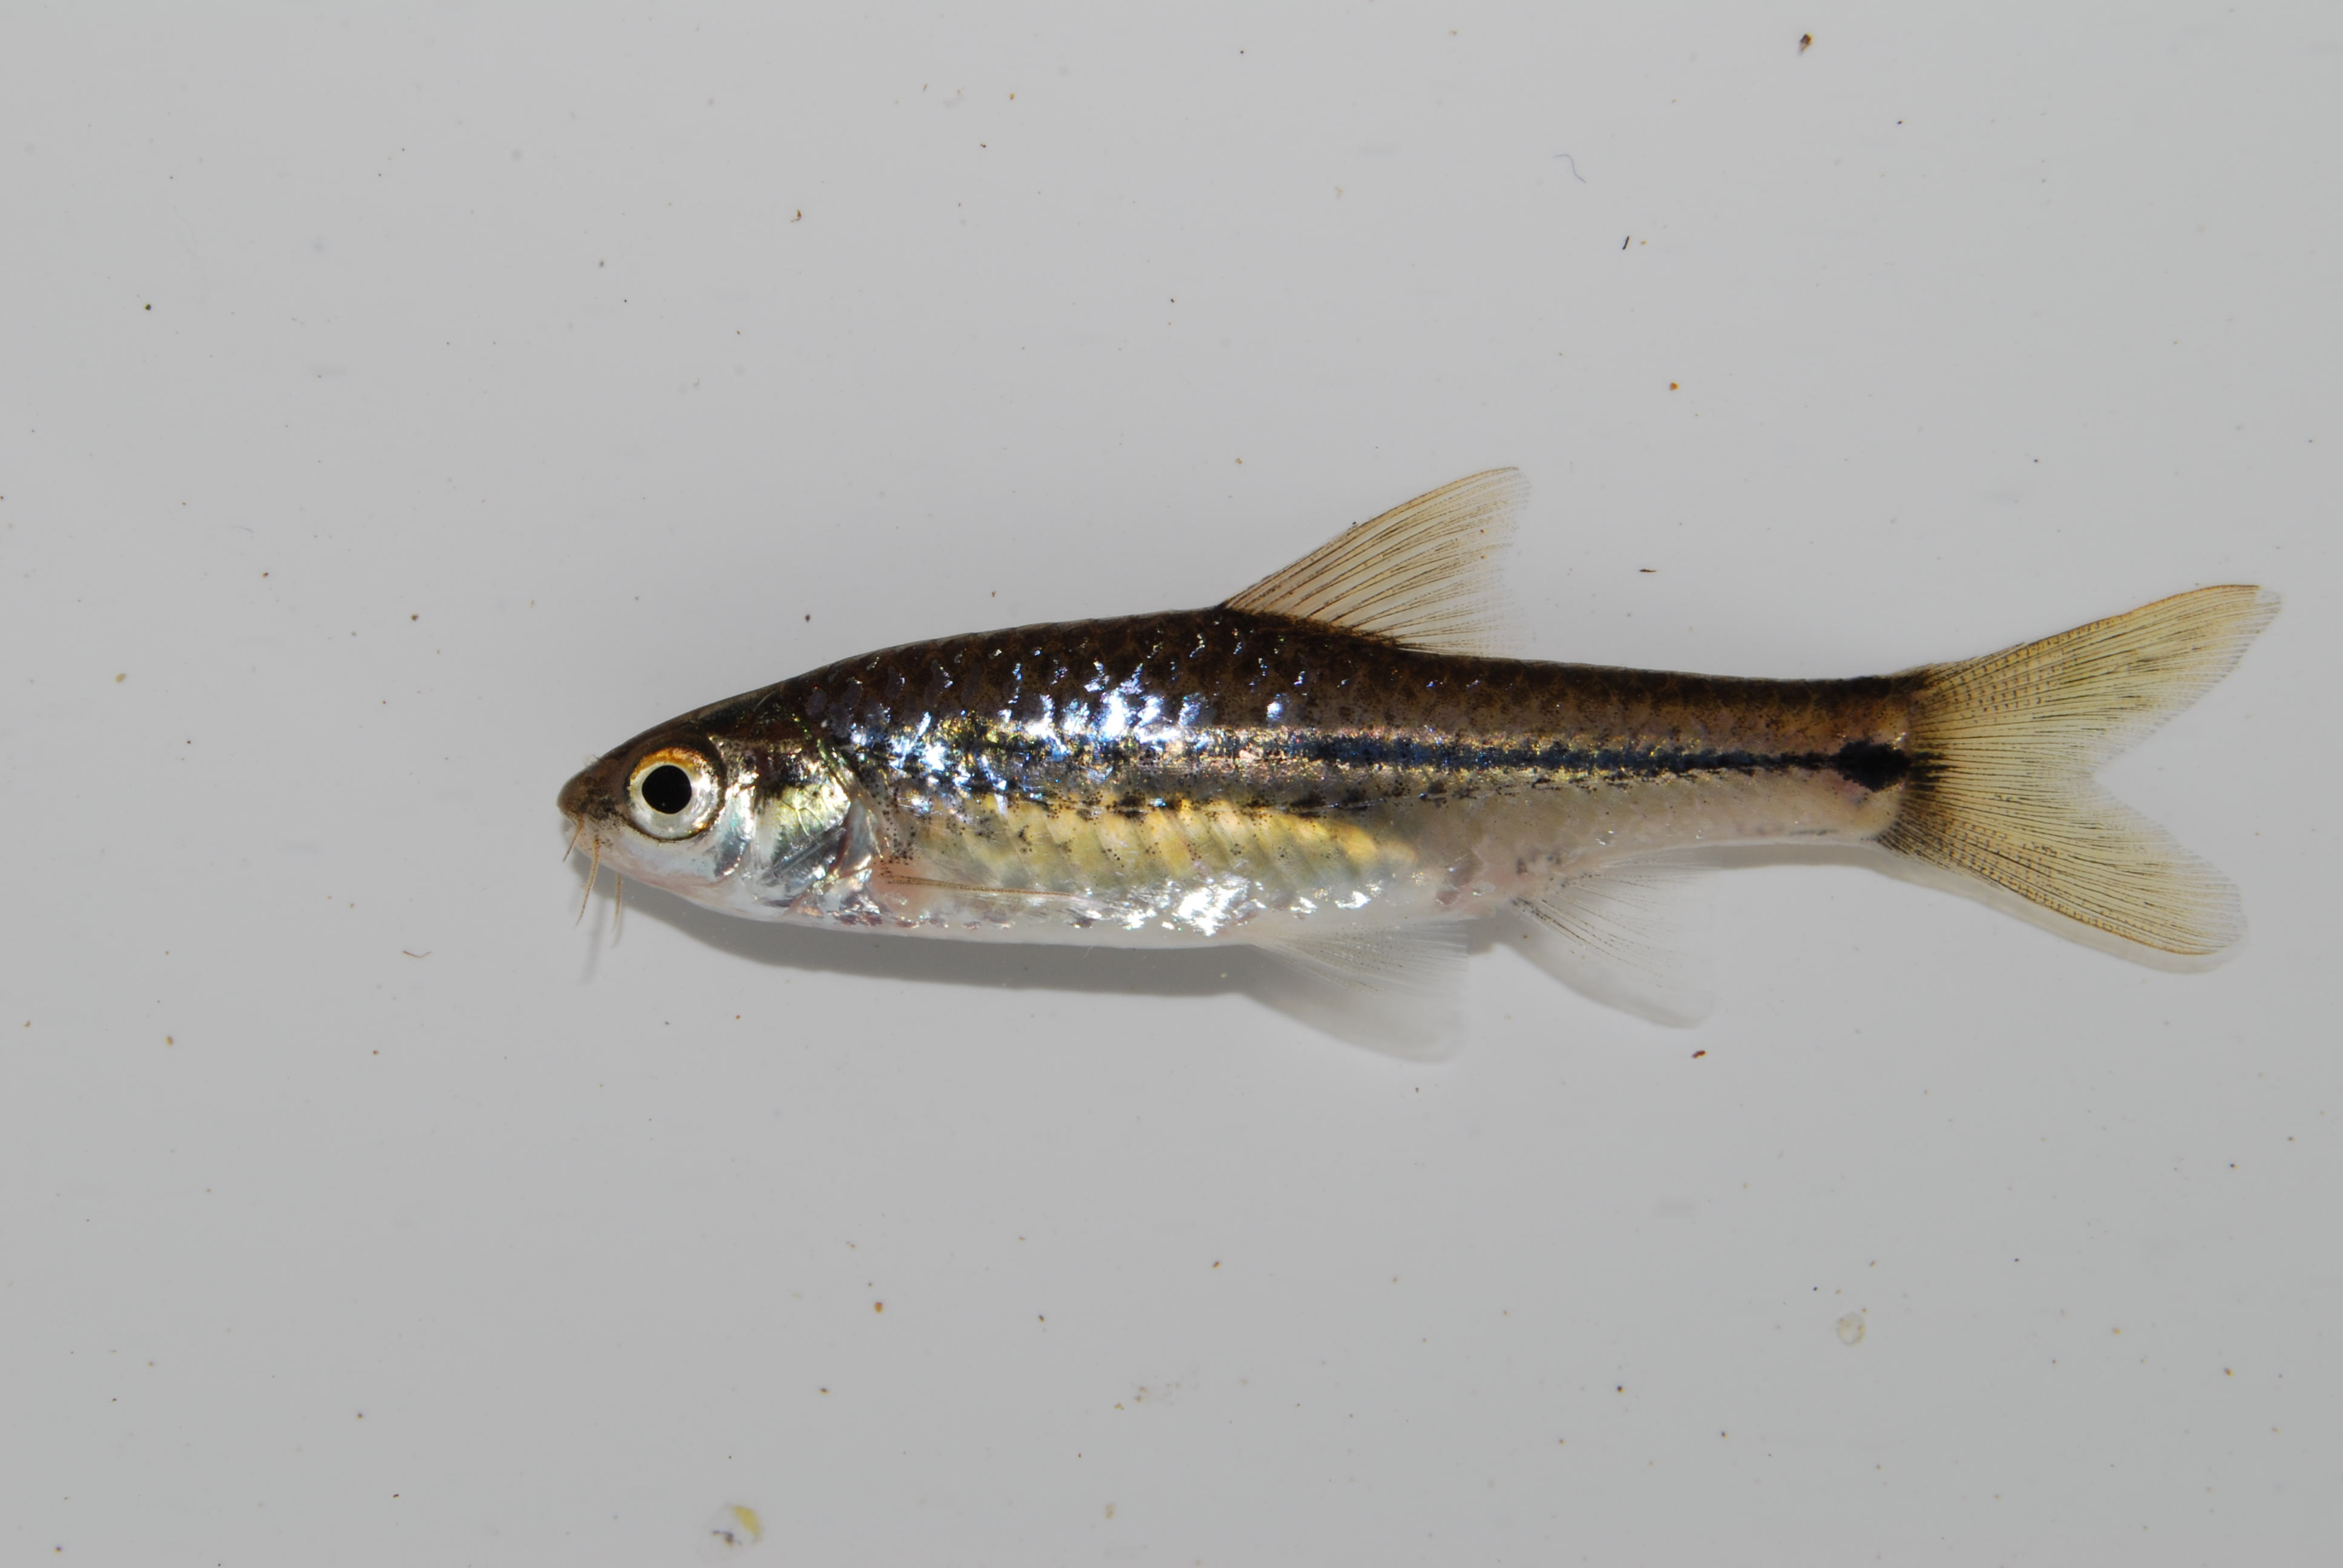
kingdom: Animalia
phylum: Chordata
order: Cypriniformes
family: Cyprinidae
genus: Enteromius
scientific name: Enteromius viviparus
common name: Bowstripe barb
